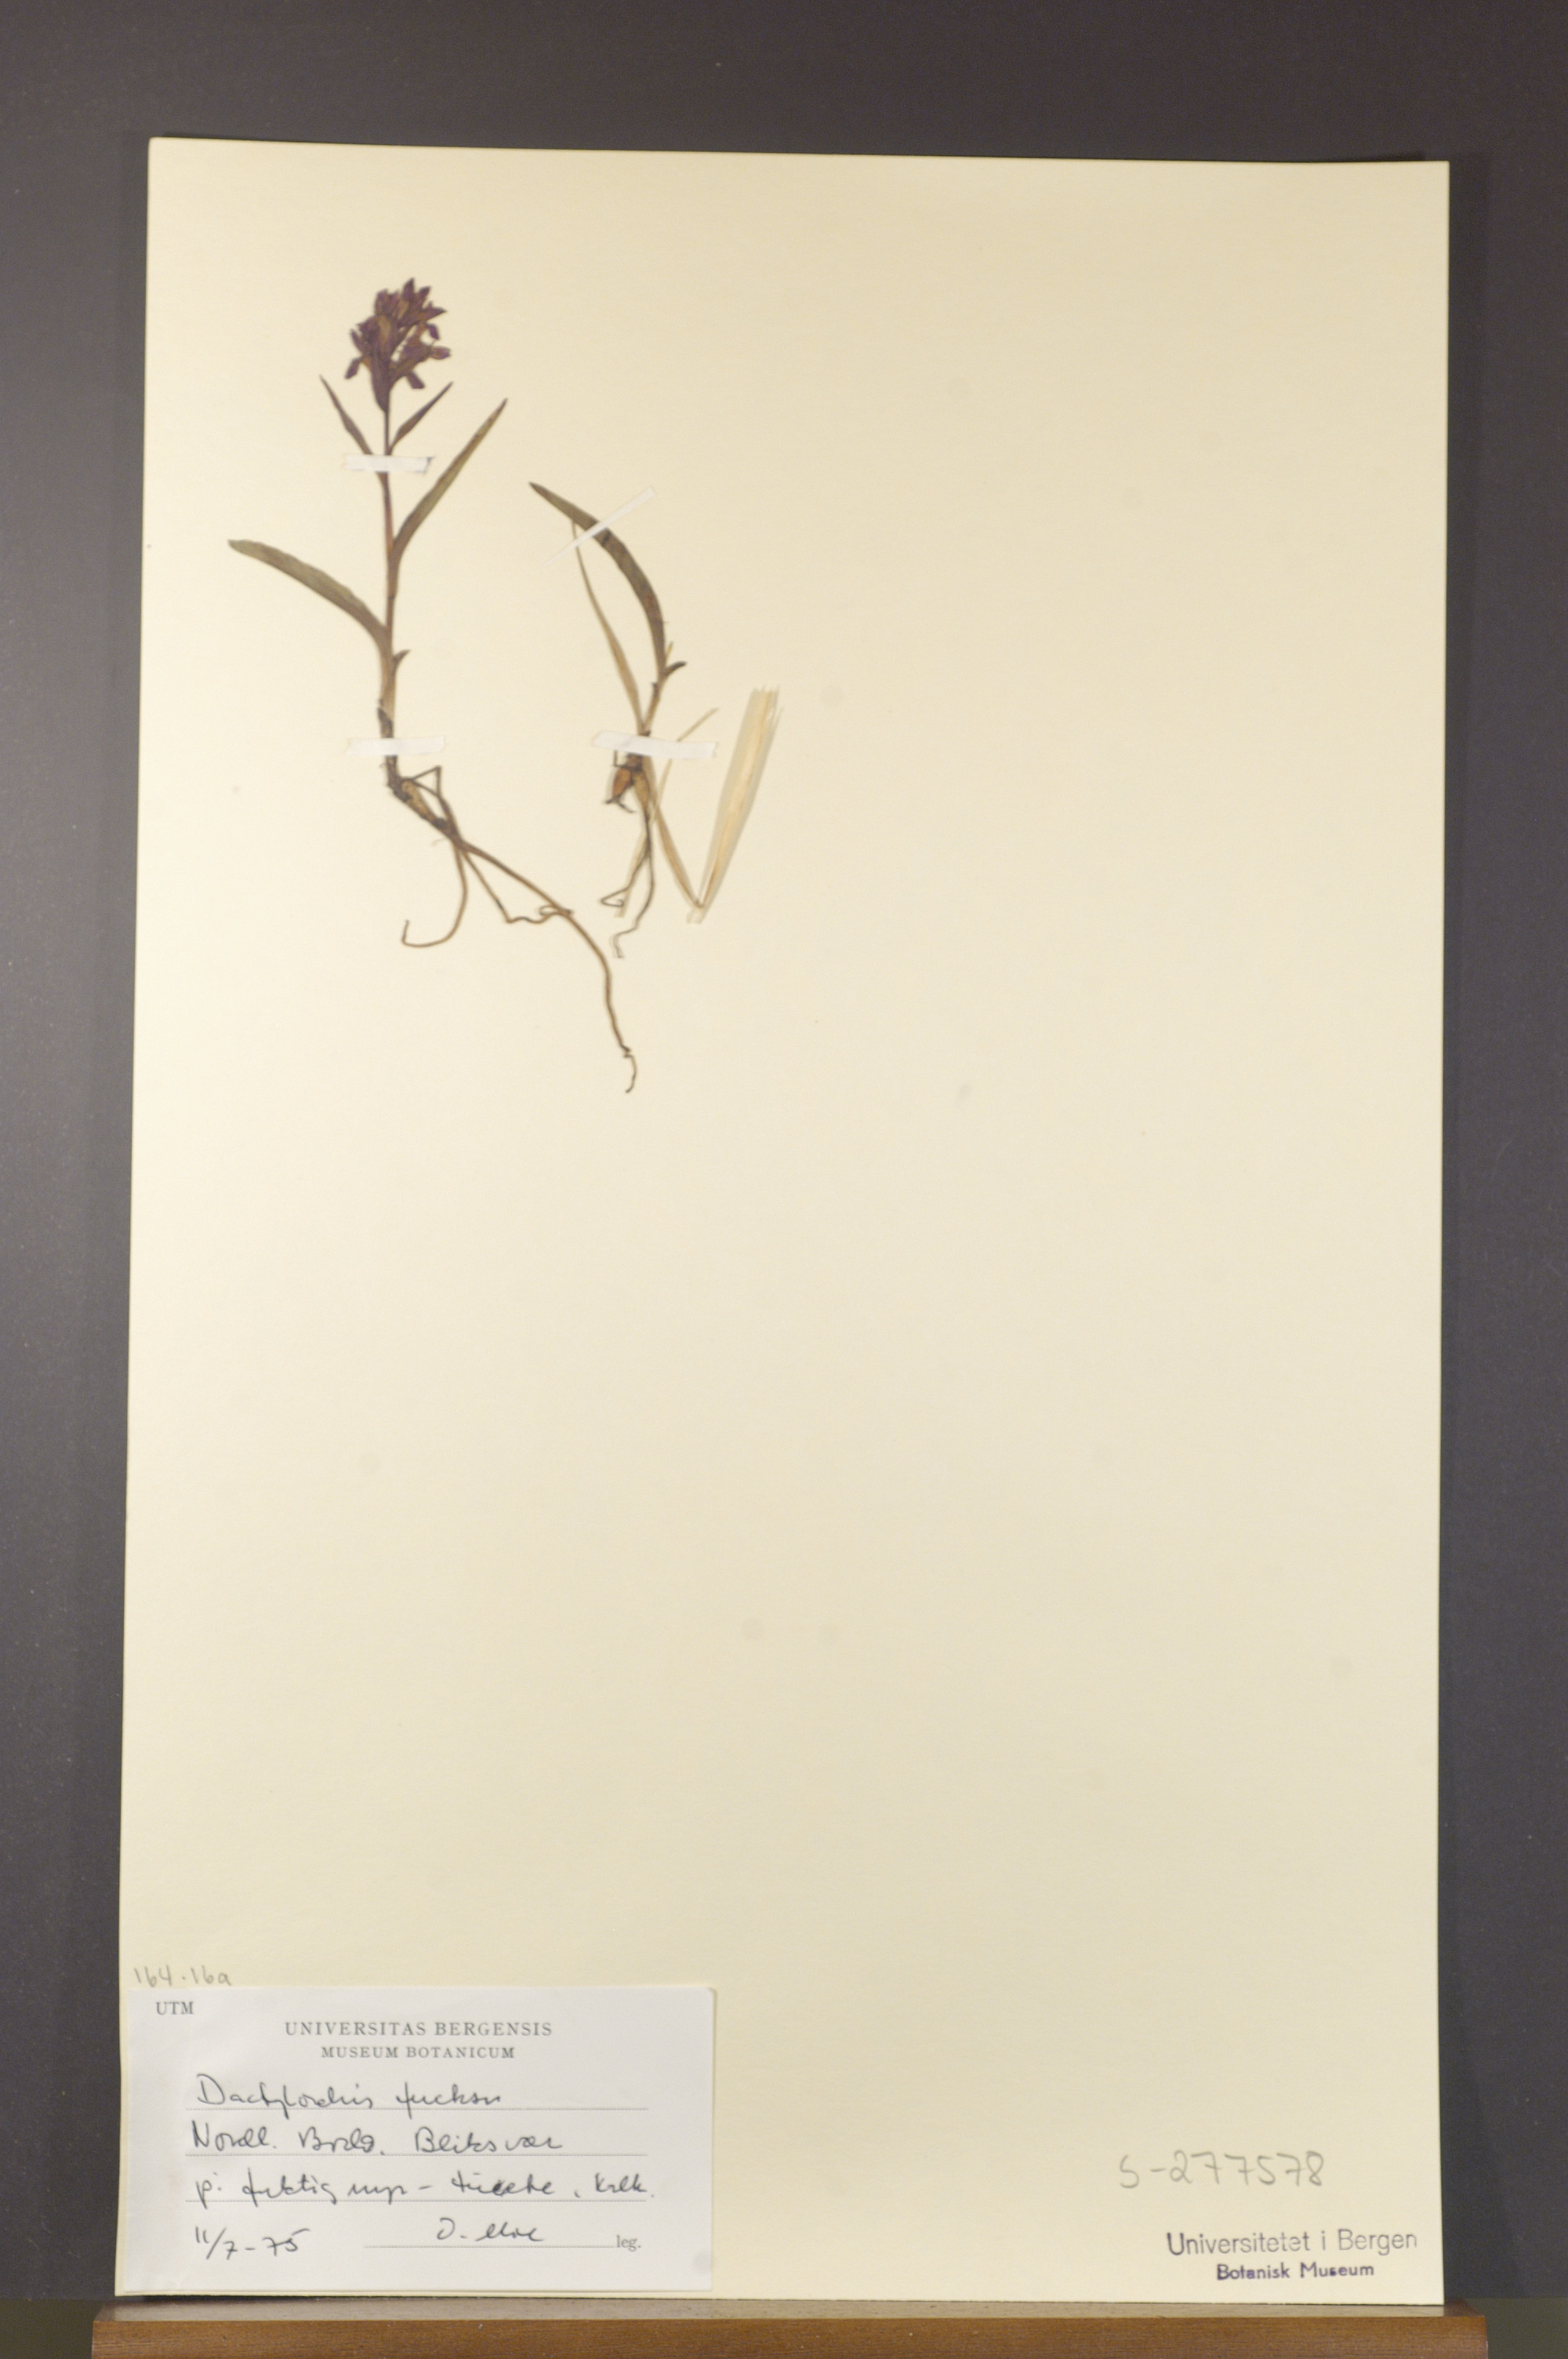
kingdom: Plantae
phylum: Tracheophyta
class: Liliopsida
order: Asparagales
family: Orchidaceae
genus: Dactylorhiza
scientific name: Dactylorhiza maculata
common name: Heath spotted-orchid
